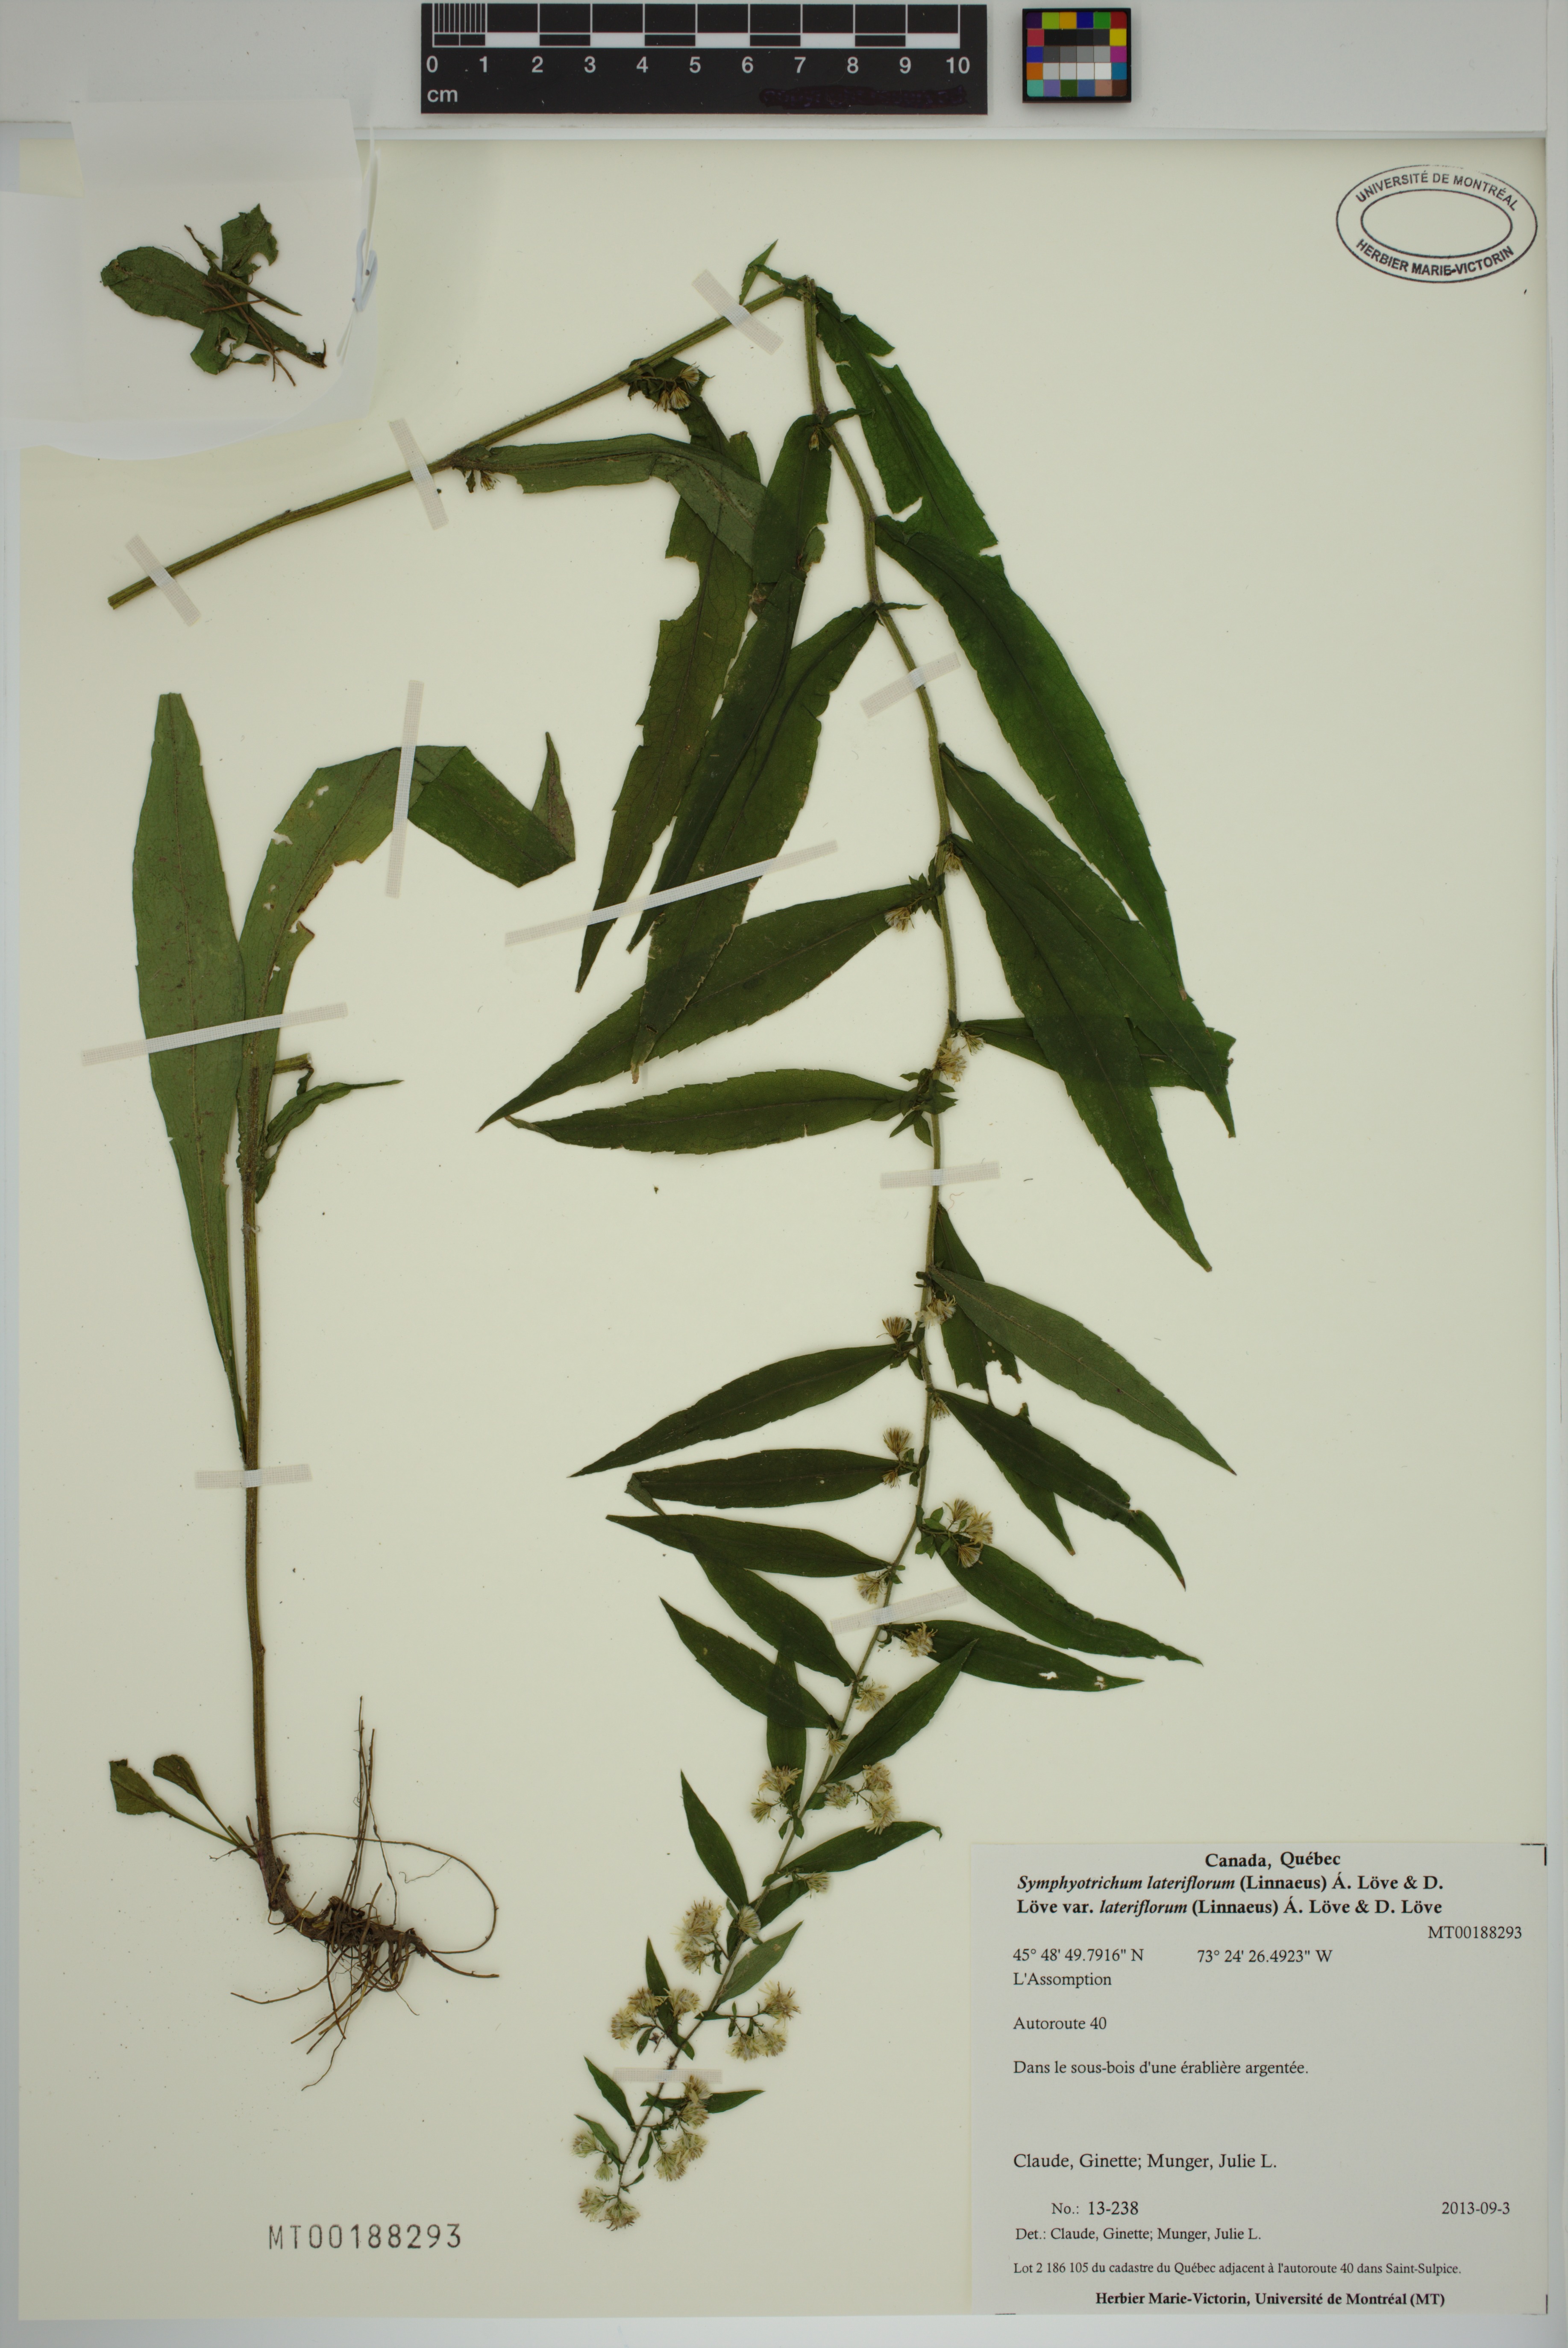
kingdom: Plantae
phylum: Tracheophyta
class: Magnoliopsida
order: Asterales
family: Asteraceae
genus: Symphyotrichum
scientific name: Symphyotrichum lateriflorum
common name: Calico aster
